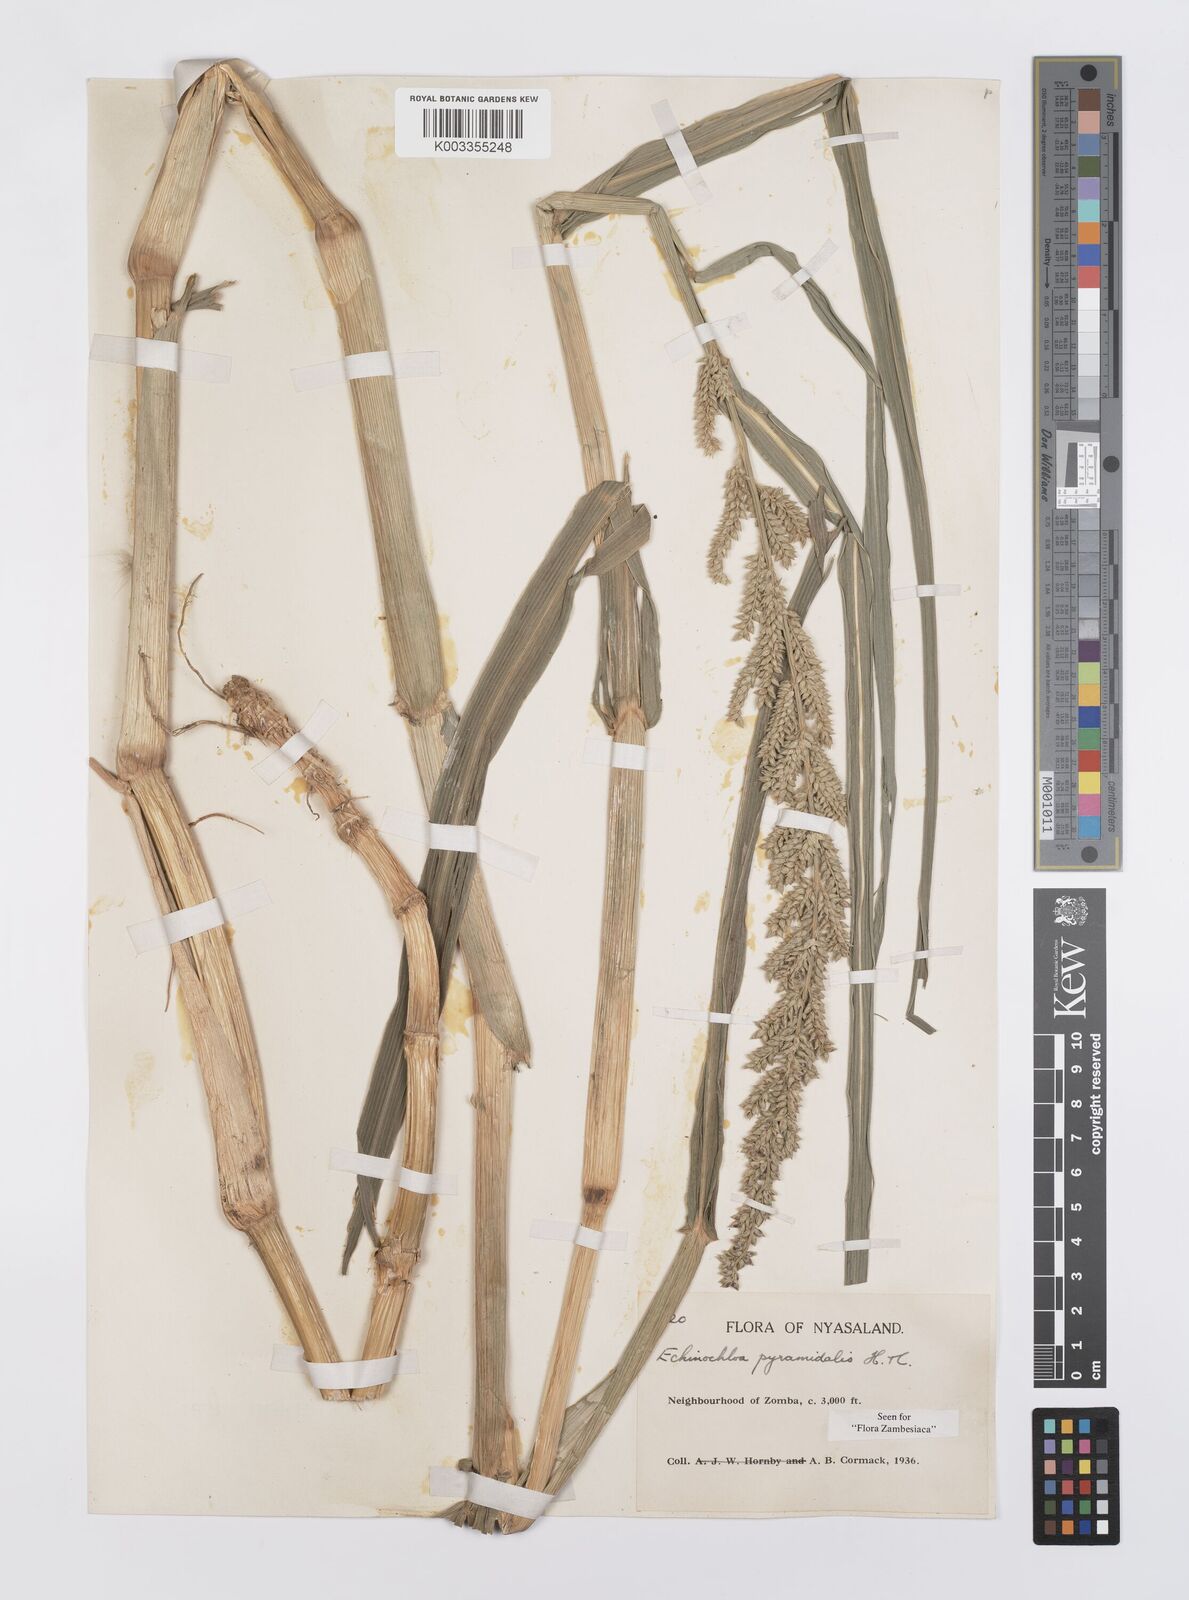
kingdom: Plantae
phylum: Tracheophyta
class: Liliopsida
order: Poales
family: Poaceae
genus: Echinochloa
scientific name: Echinochloa pyramidalis
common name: Antelope grass
